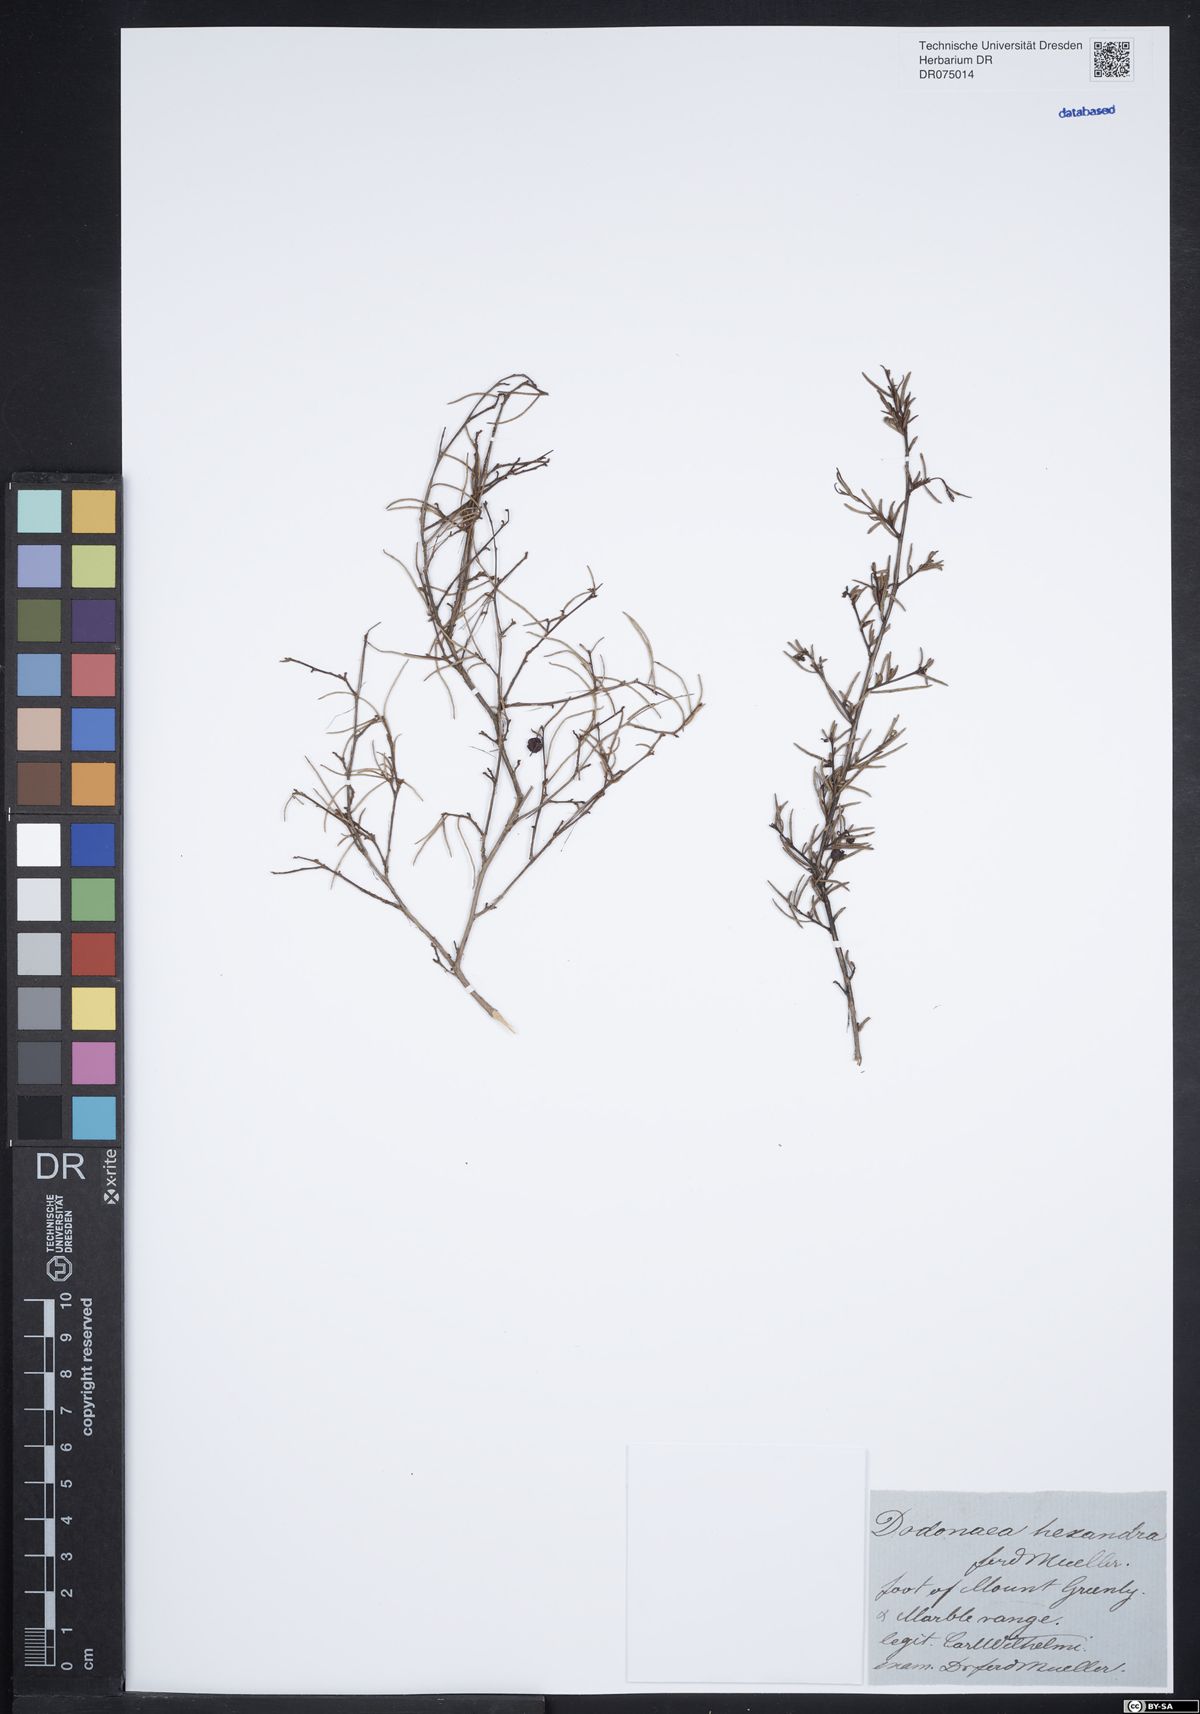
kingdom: Plantae
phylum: Tracheophyta
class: Magnoliopsida
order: Sapindales
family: Sapindaceae
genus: Dodonaea
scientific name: Dodonaea hexandra
